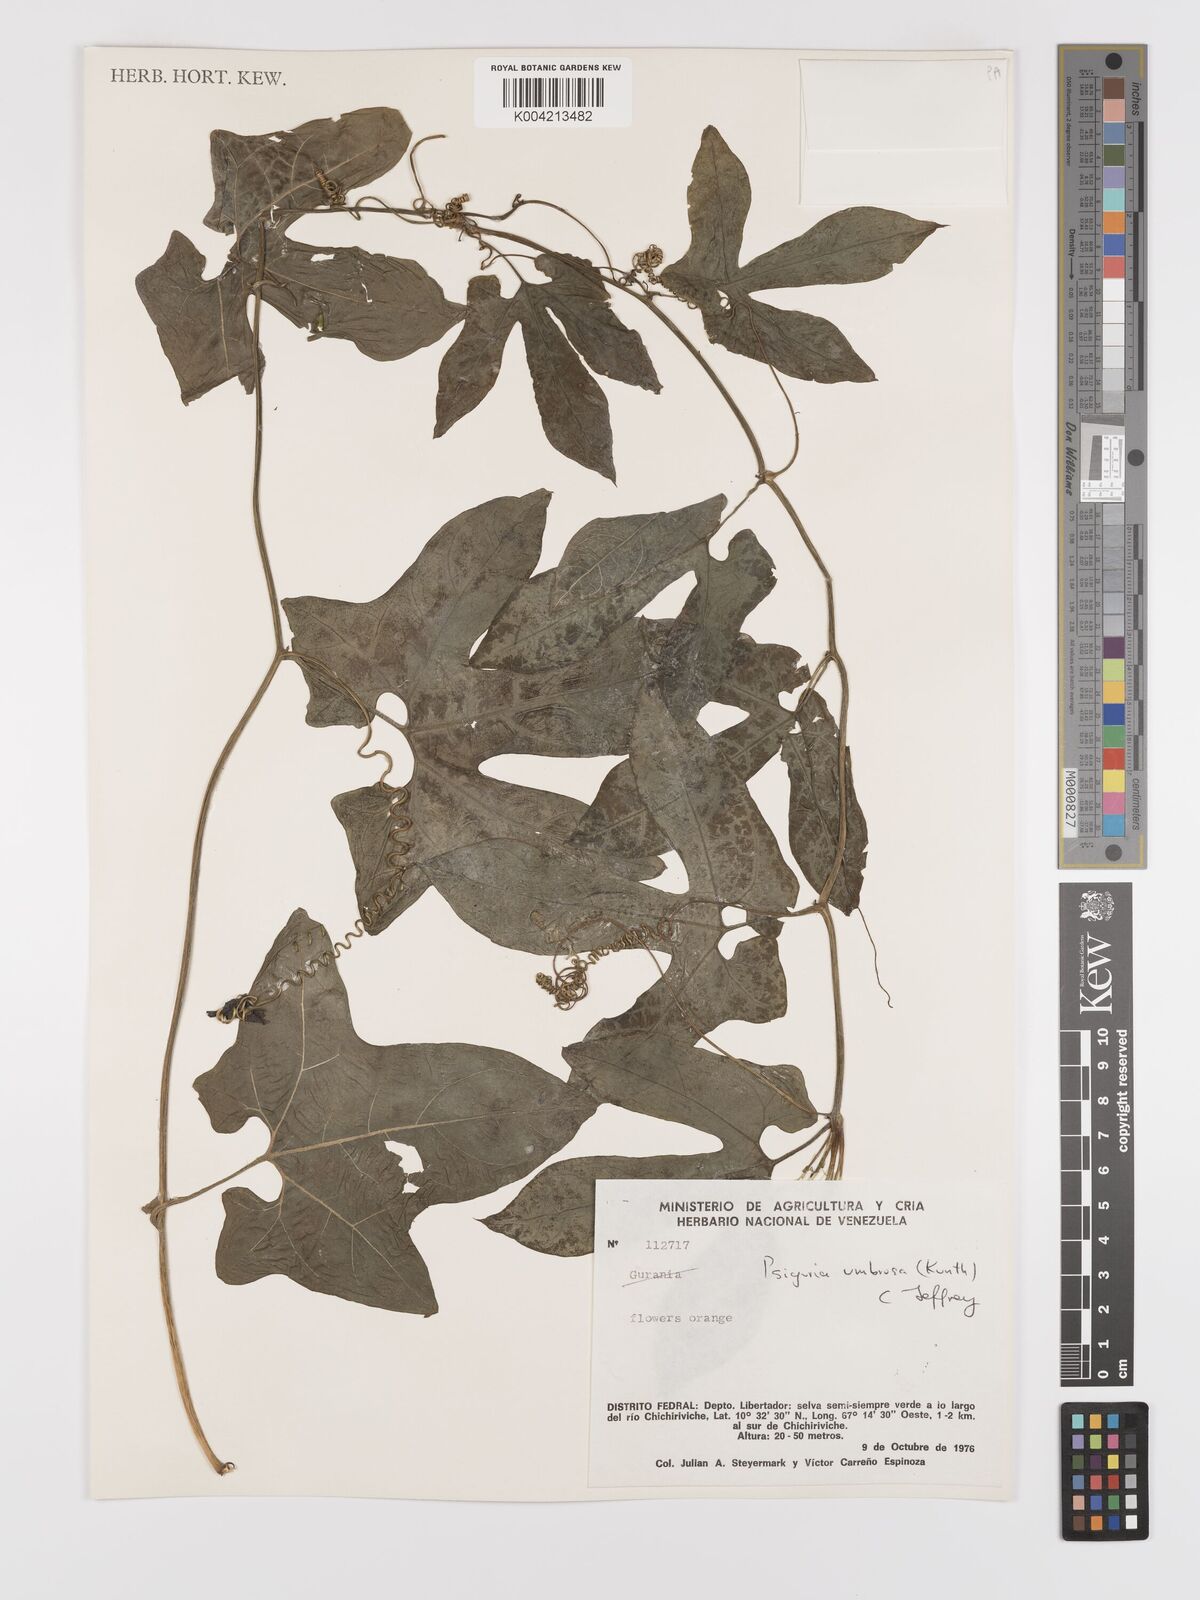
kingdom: Plantae
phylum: Tracheophyta
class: Magnoliopsida
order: Cucurbitales
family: Cucurbitaceae
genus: Psiguria
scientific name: Psiguria umbrosa
